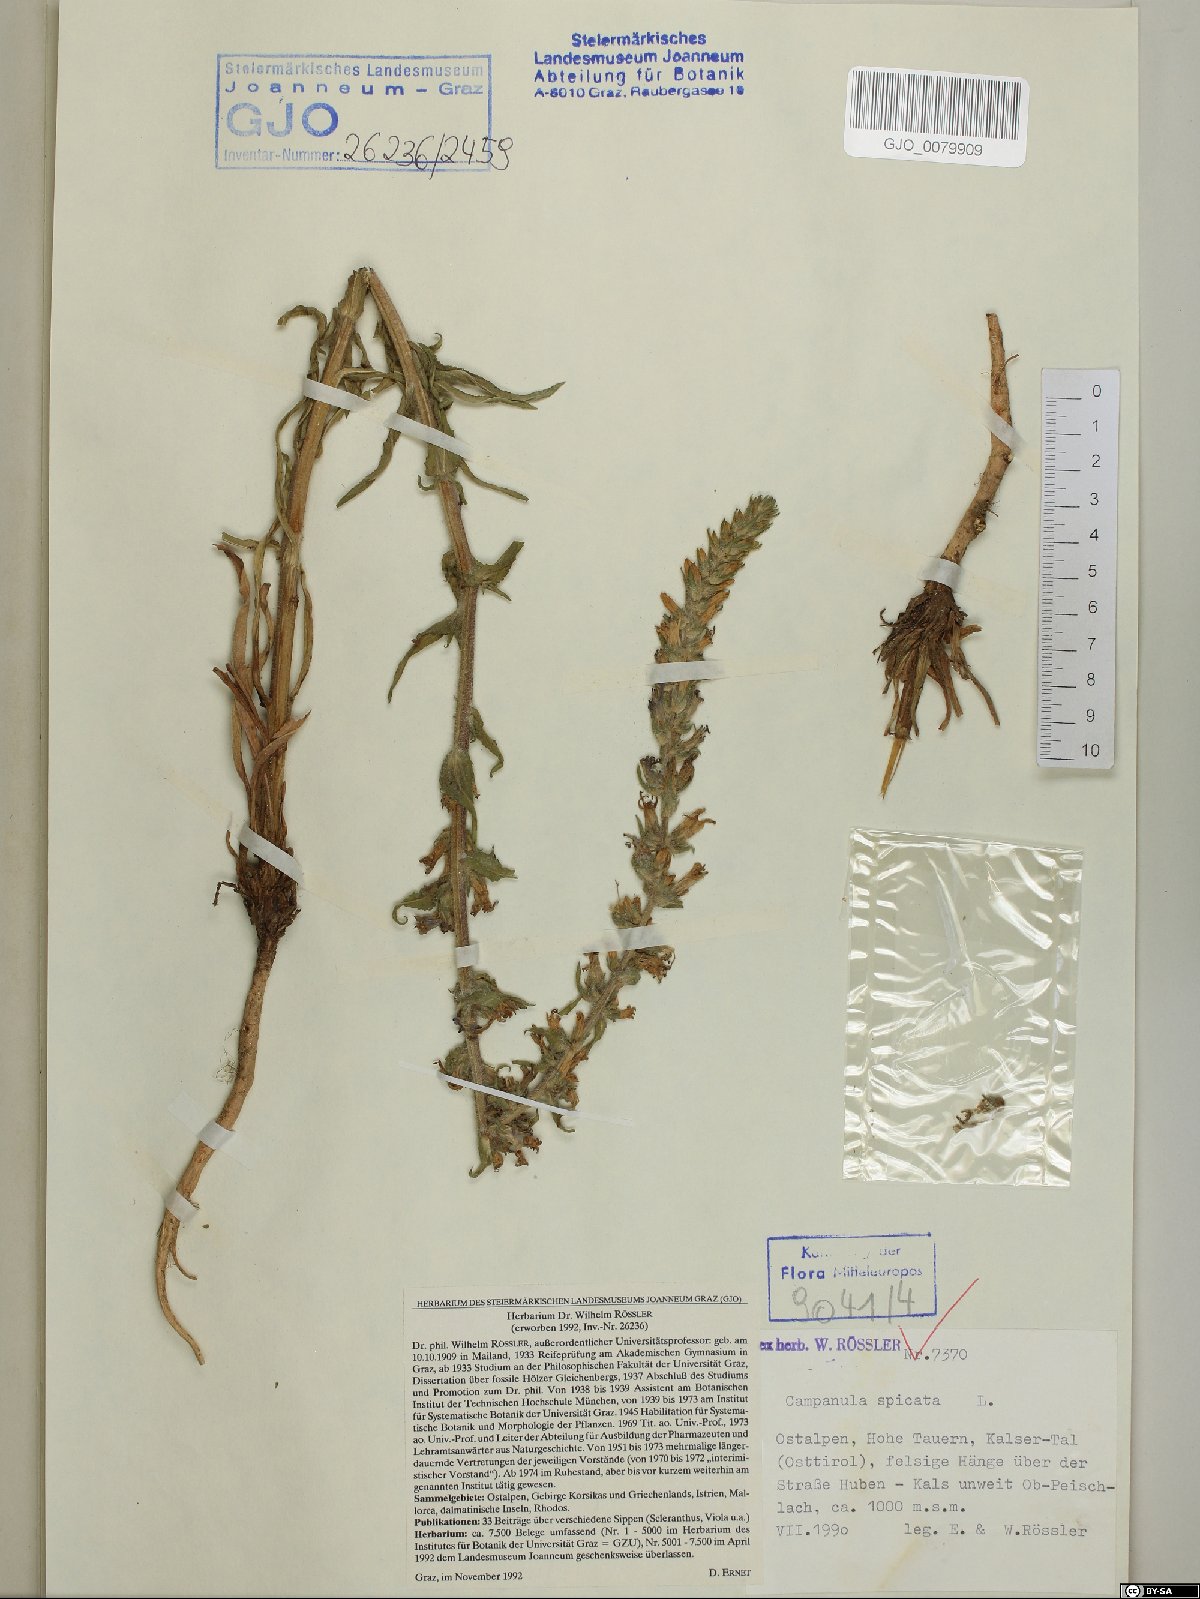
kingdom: Plantae
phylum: Tracheophyta
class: Magnoliopsida
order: Asterales
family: Campanulaceae
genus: Campanula
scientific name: Campanula spicata
